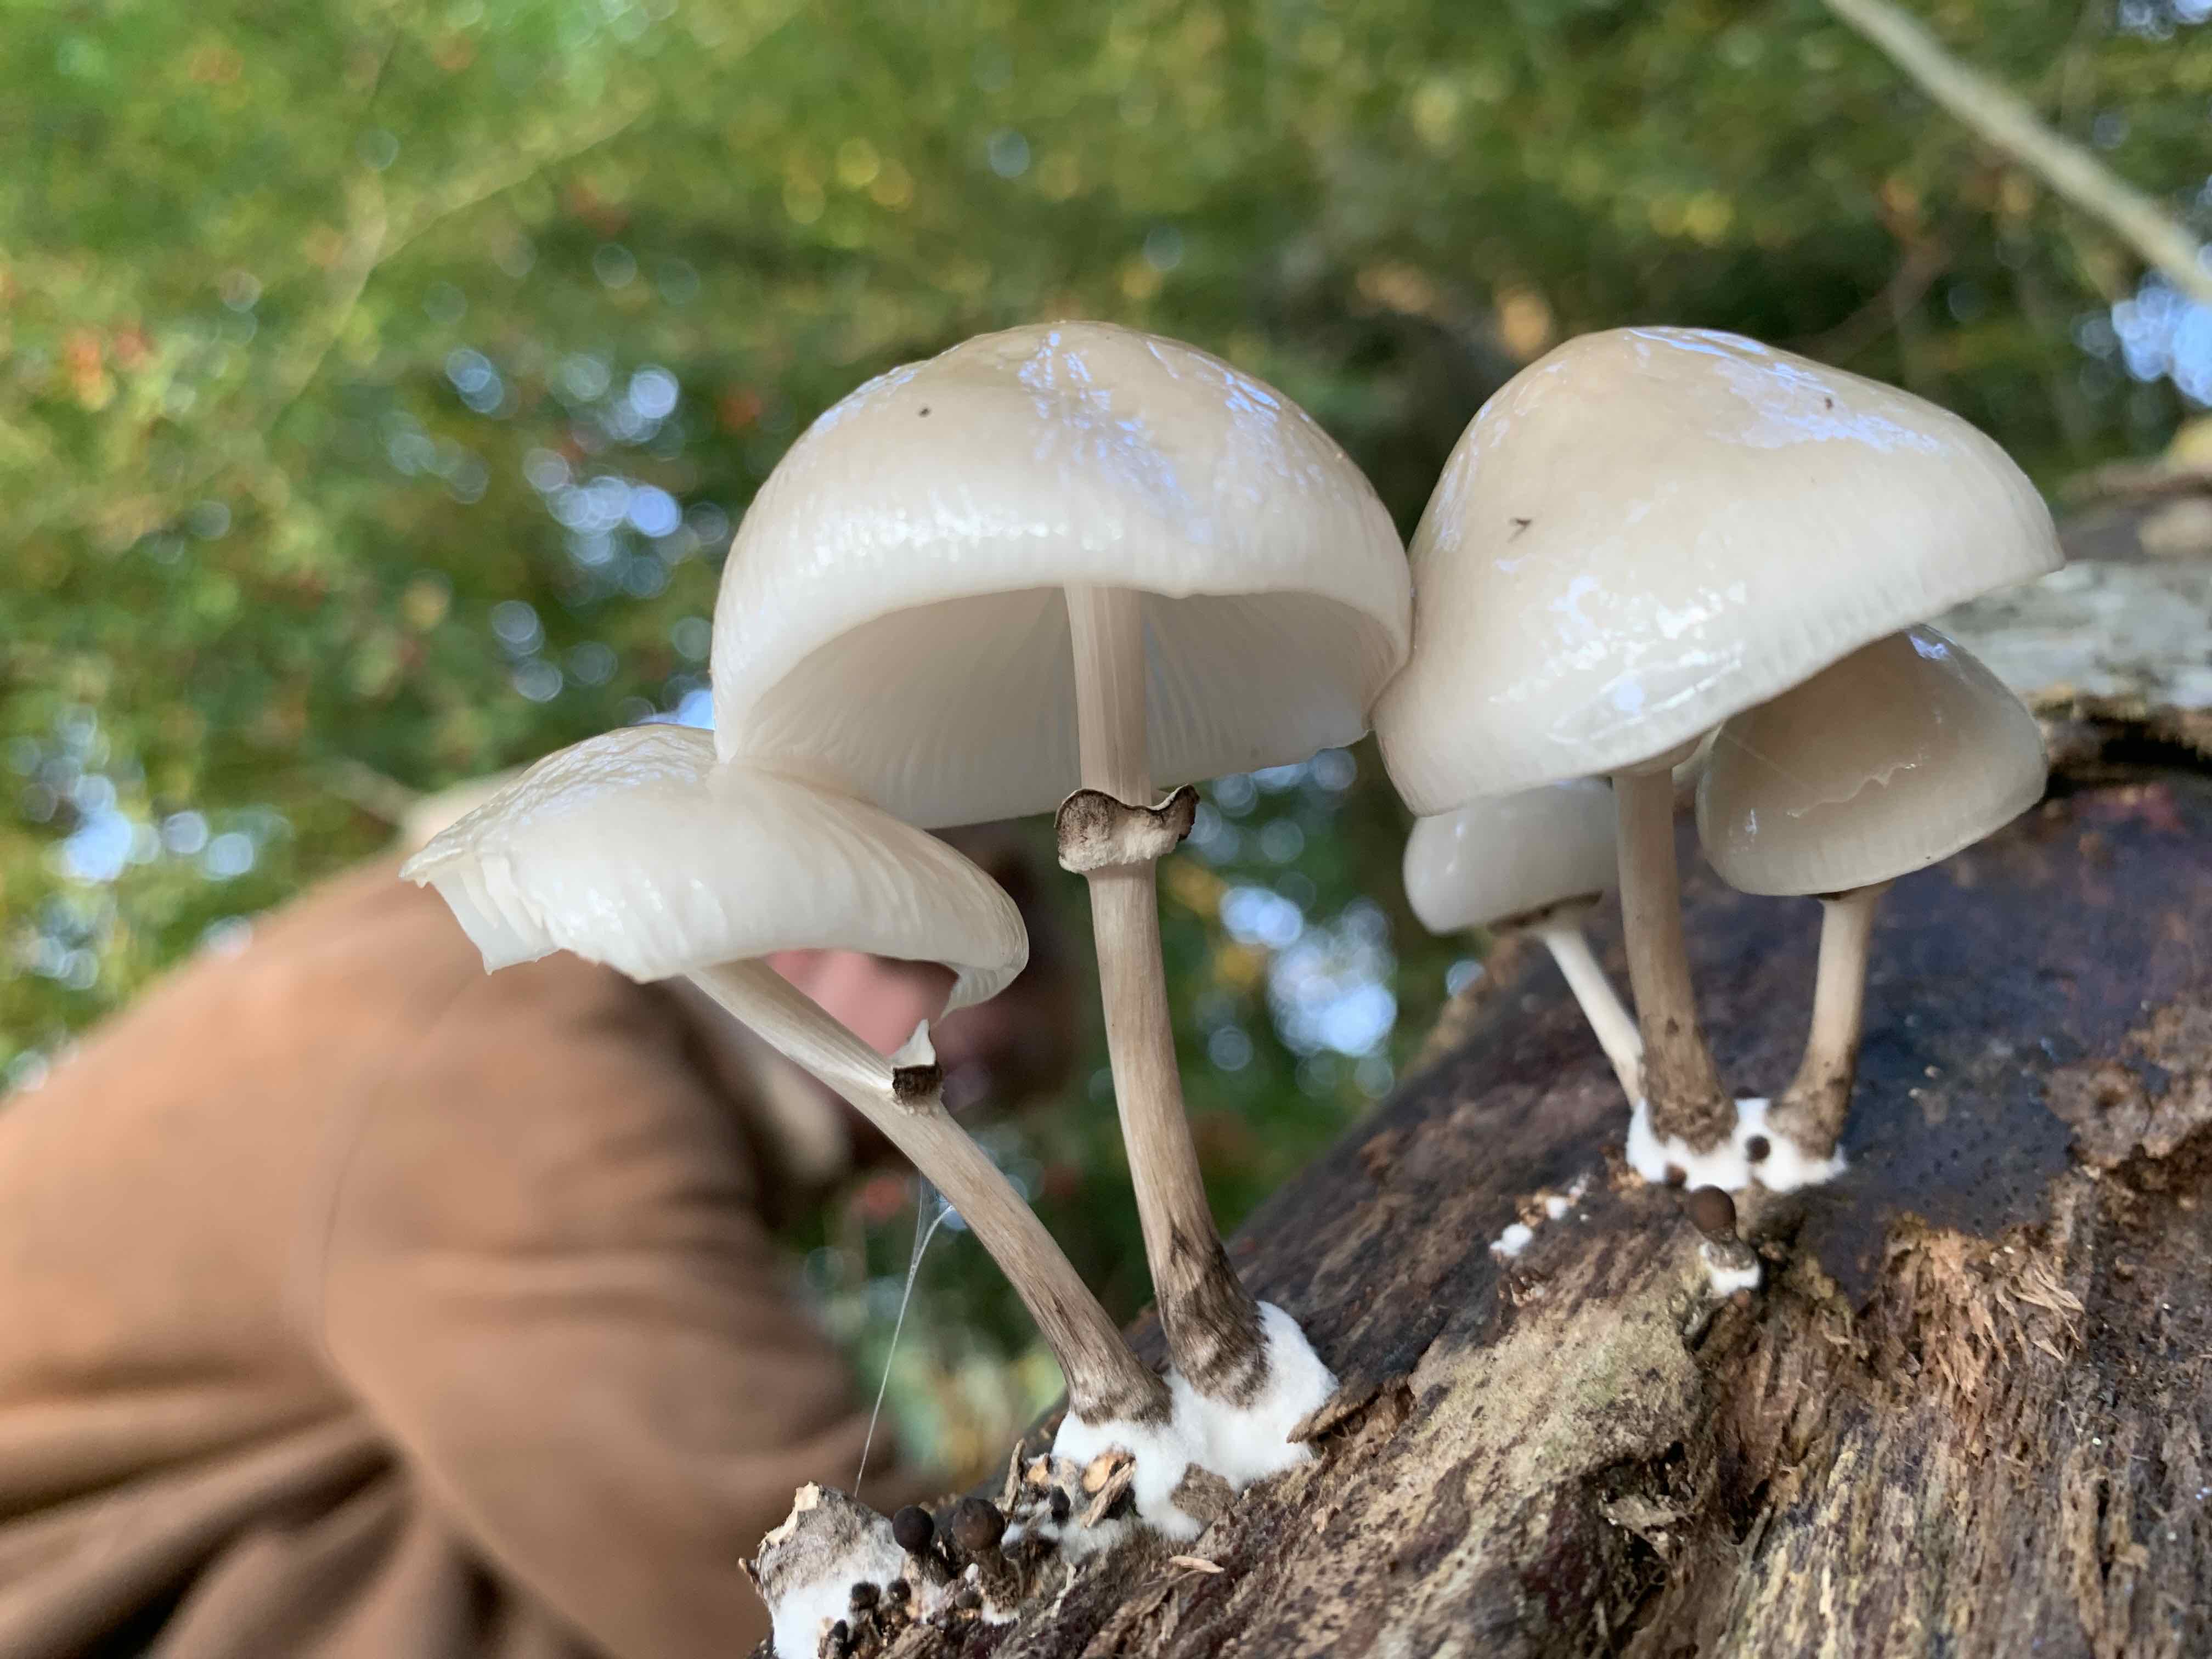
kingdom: Fungi
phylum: Basidiomycota
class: Agaricomycetes
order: Agaricales
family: Physalacriaceae
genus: Mucidula
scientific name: Mucidula mucida
